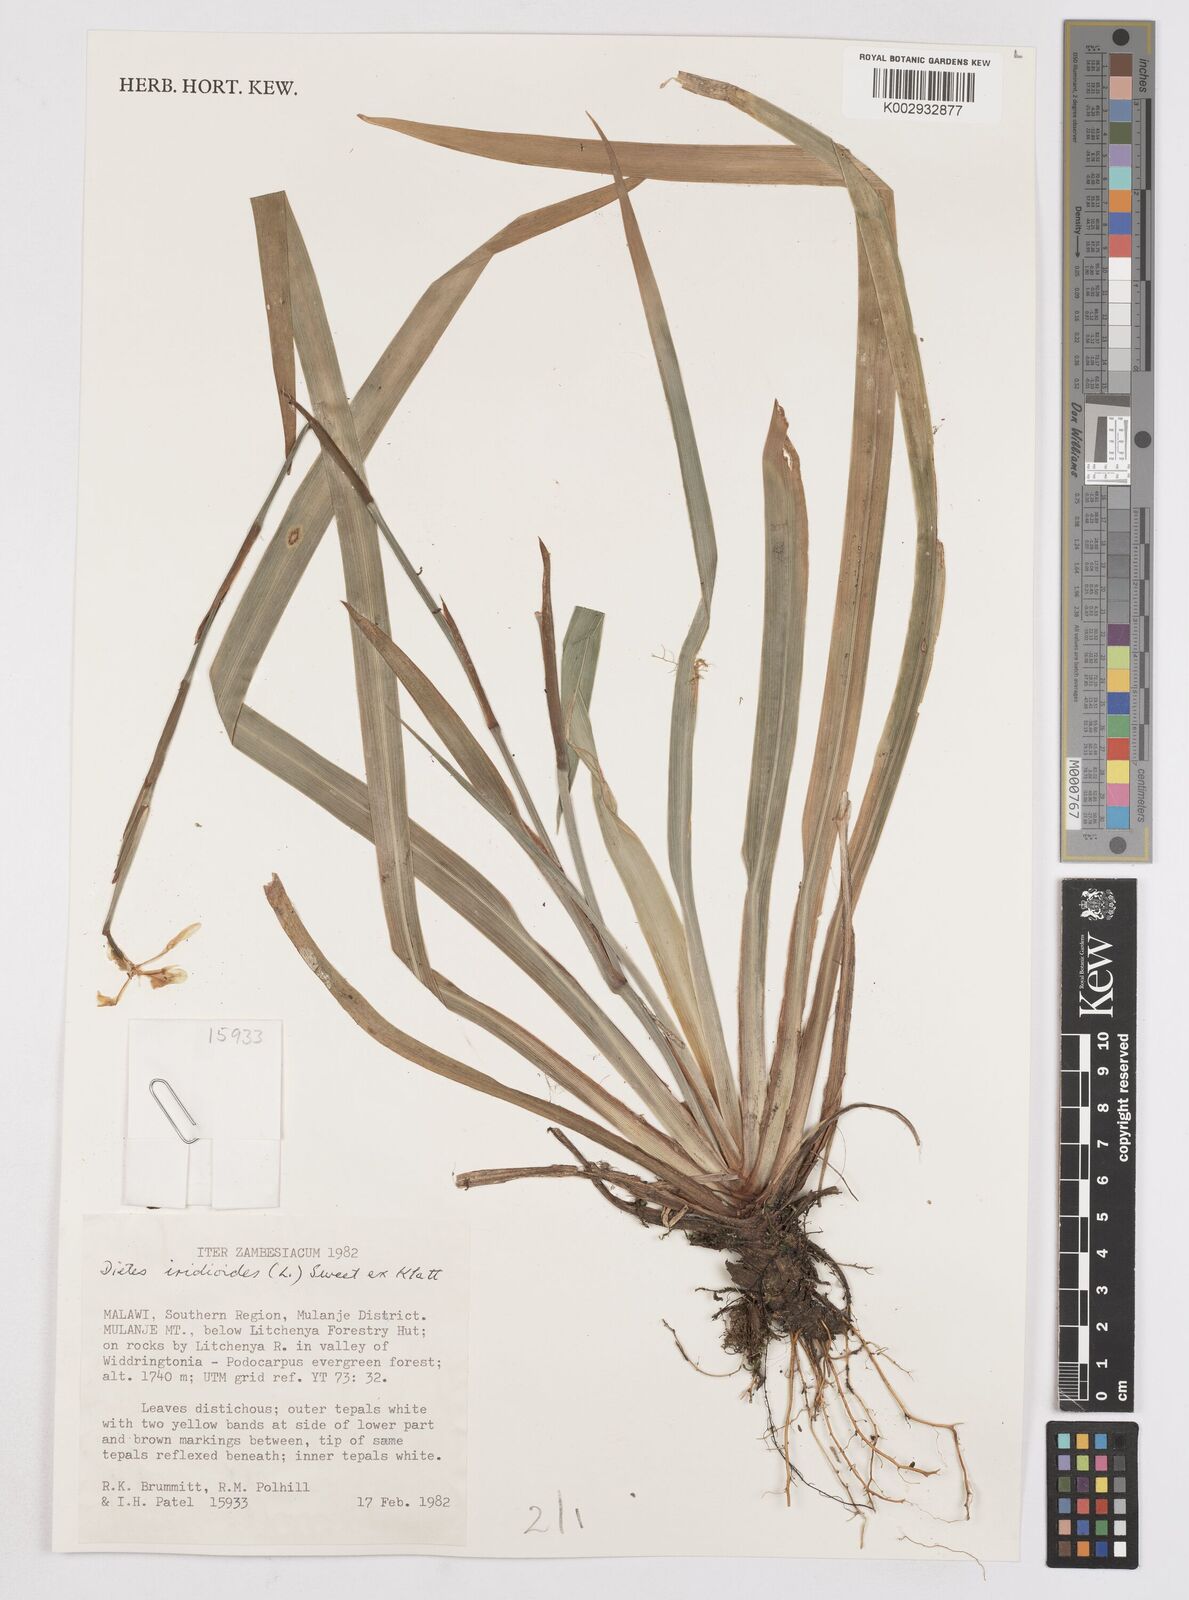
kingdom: Plantae
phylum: Tracheophyta
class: Liliopsida
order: Asparagales
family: Iridaceae
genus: Dietes
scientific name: Dietes iridioides
